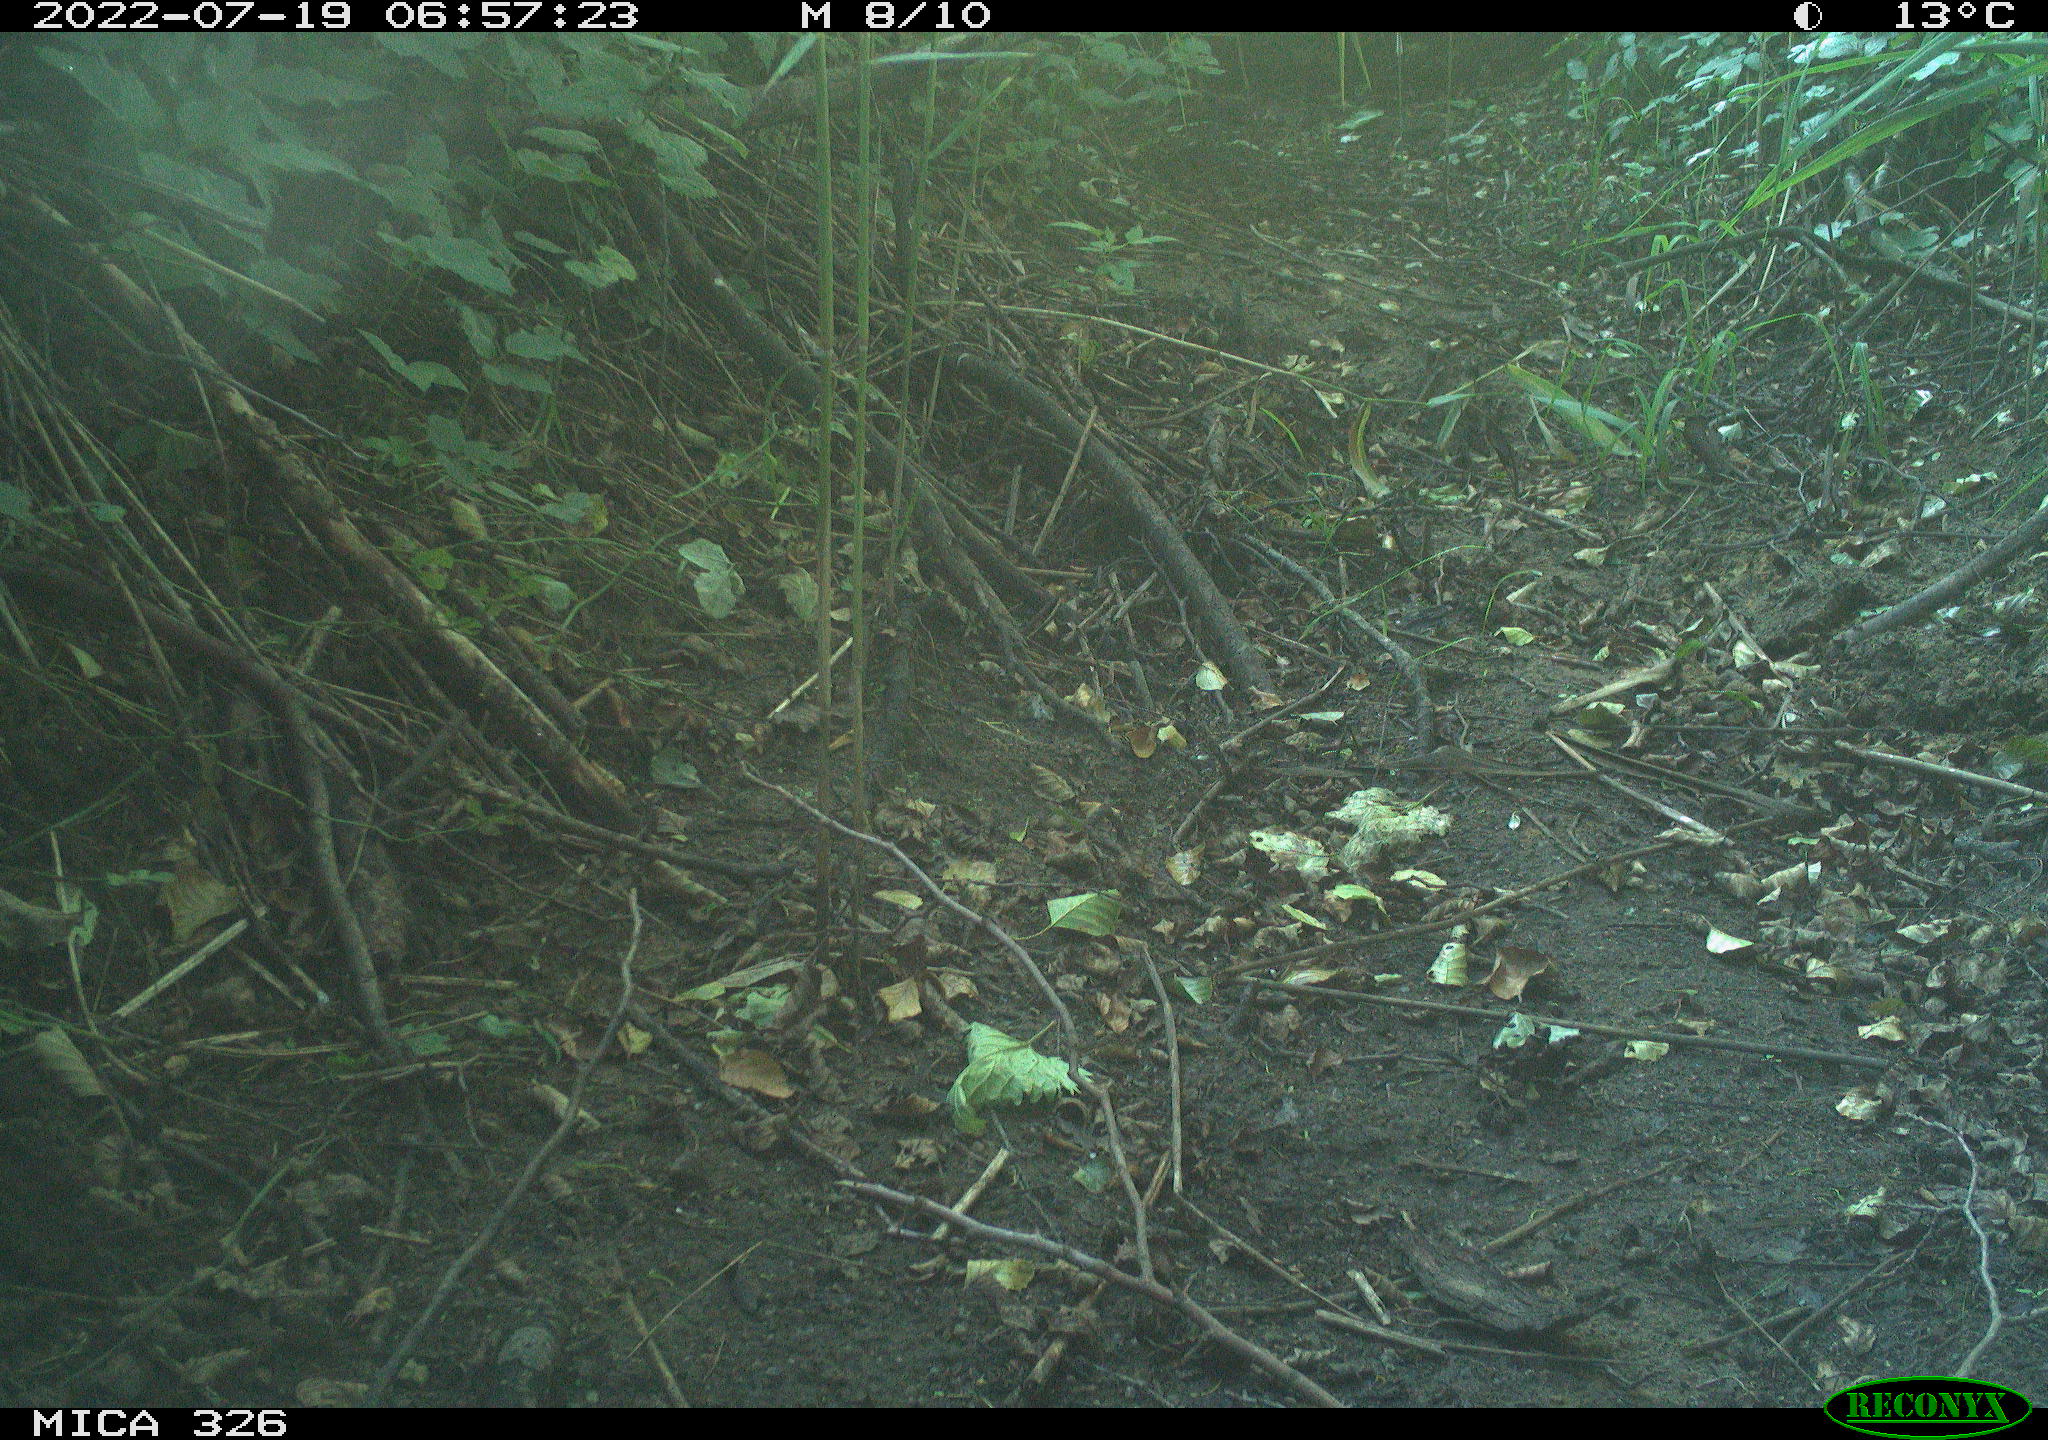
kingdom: Animalia
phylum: Chordata
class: Aves
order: Passeriformes
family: Turdidae
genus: Turdus
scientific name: Turdus philomelos
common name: Song thrush
